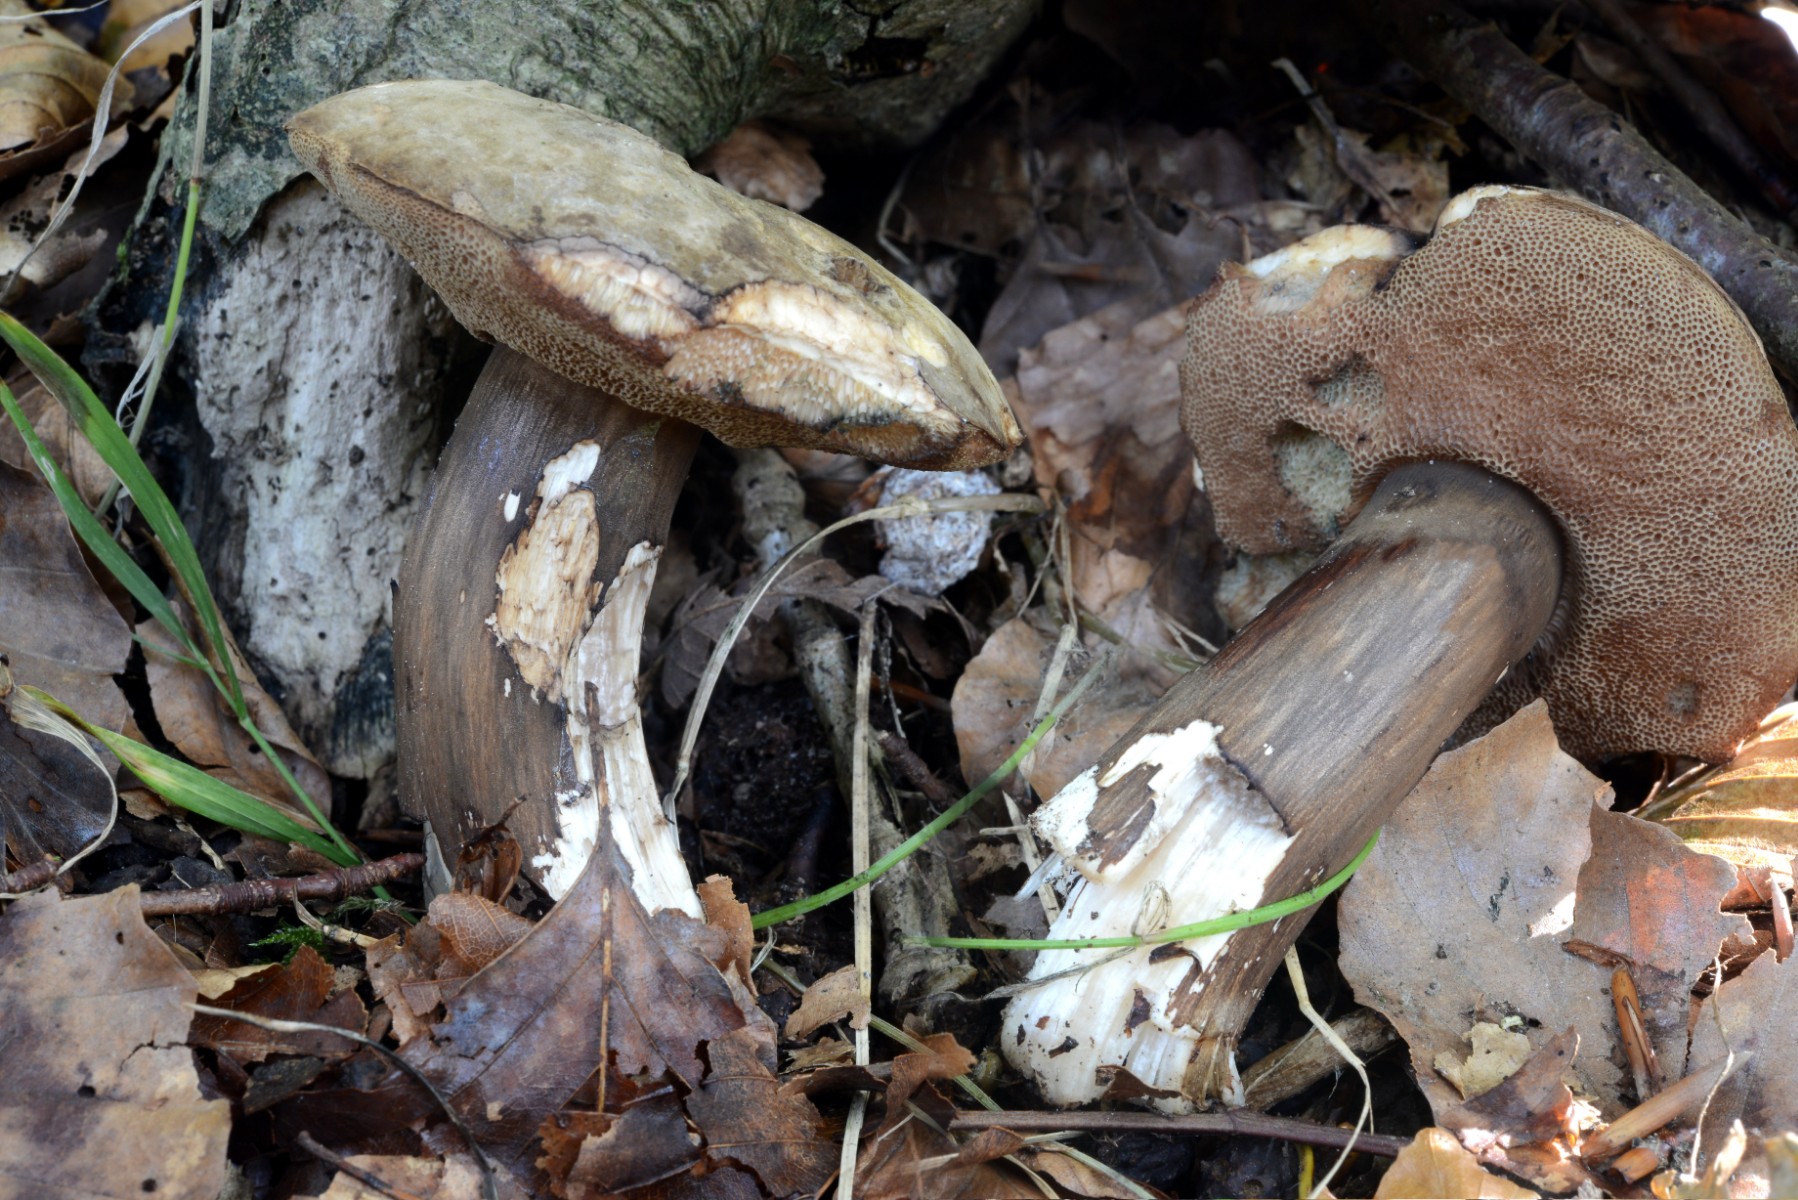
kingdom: Fungi
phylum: Basidiomycota
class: Agaricomycetes
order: Boletales
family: Boletaceae
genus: Porphyrellus
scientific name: Porphyrellus porphyrosporus
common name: sodrørhat
